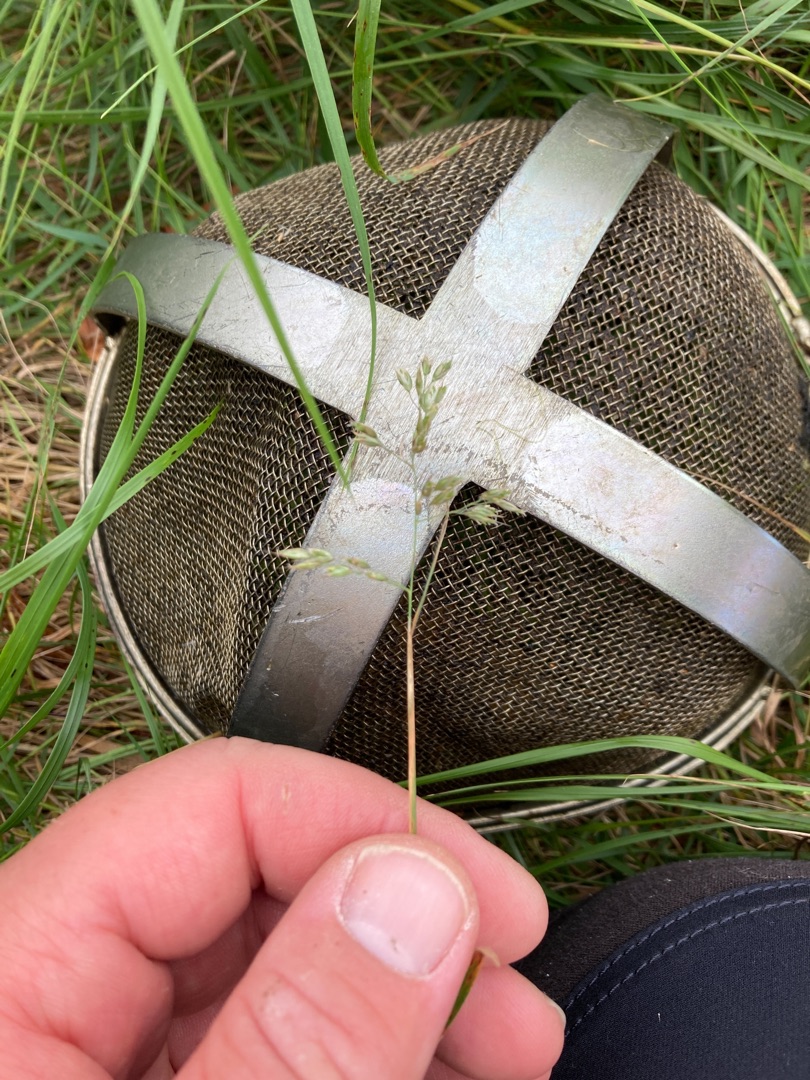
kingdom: Plantae
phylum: Tracheophyta
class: Liliopsida
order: Poales
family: Poaceae
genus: Anthoxanthum
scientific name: Anthoxanthum nitens
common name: Festgræs
